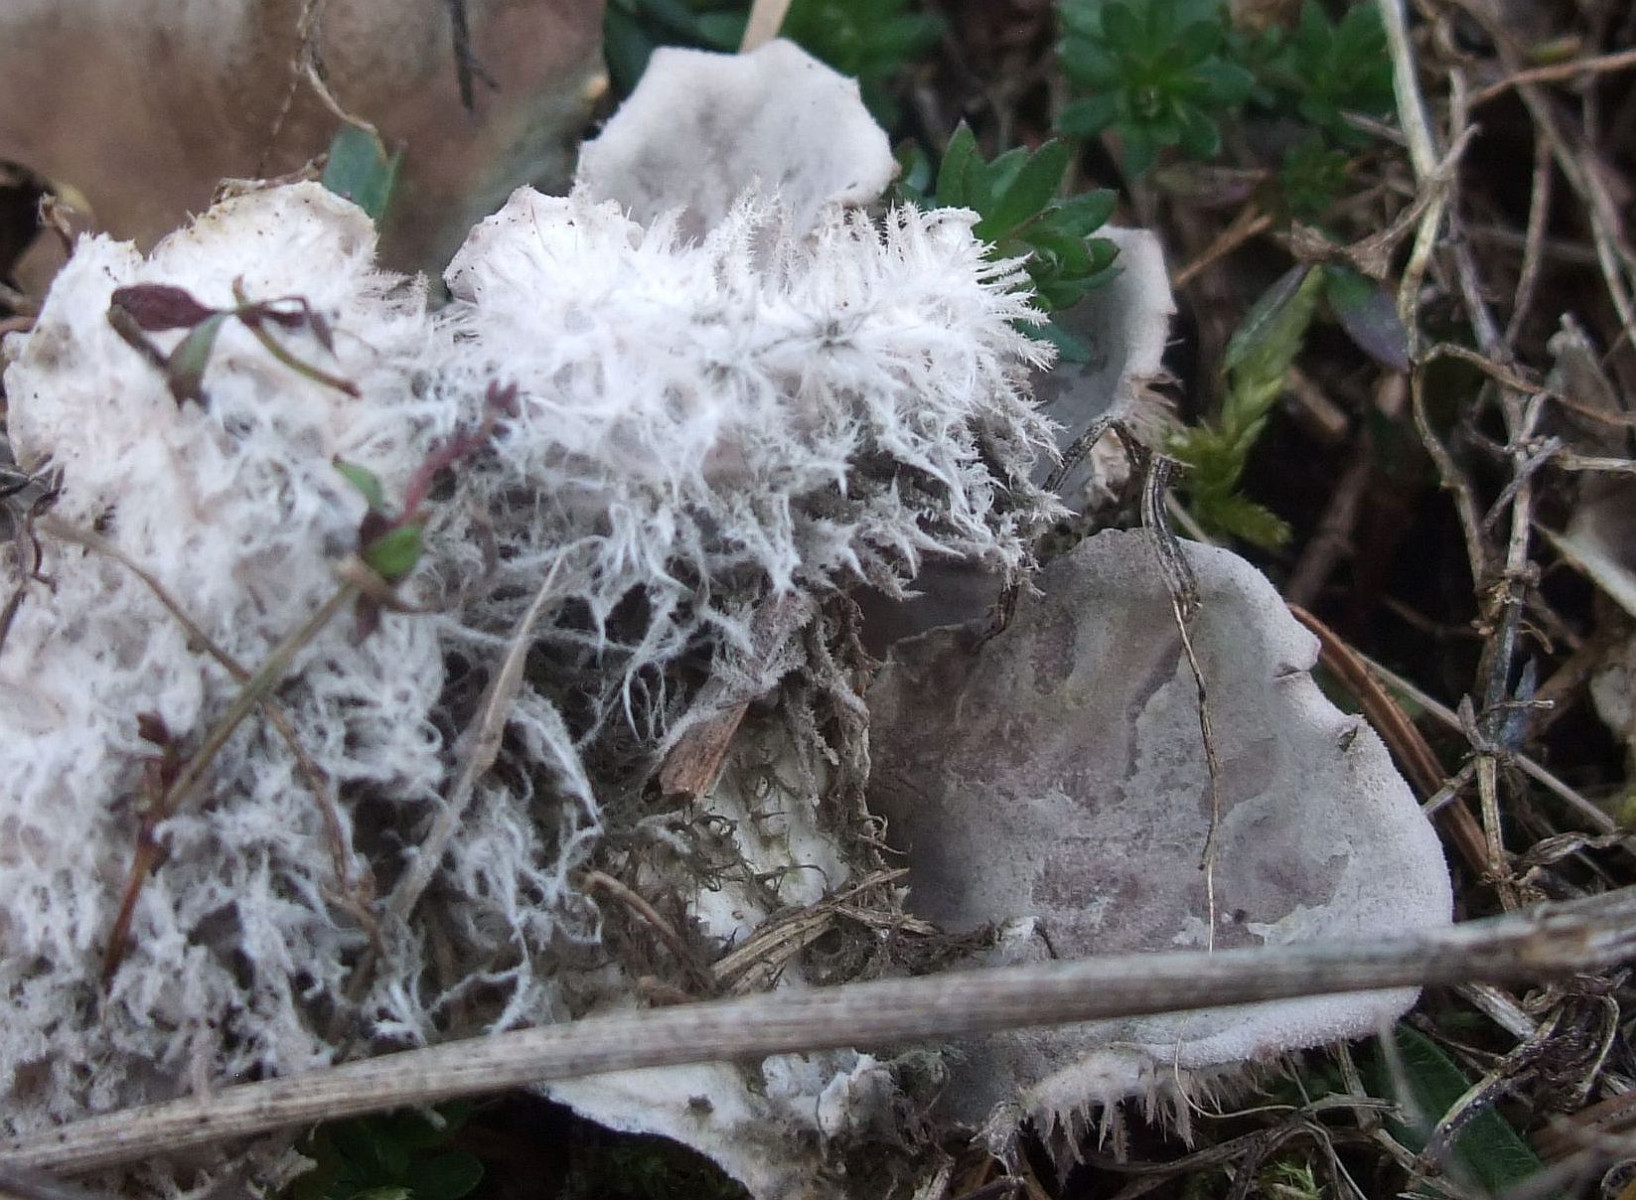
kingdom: Fungi
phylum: Ascomycota
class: Lecanoromycetes
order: Peltigerales
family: Peltigeraceae
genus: Peltigera
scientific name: Peltigera canina
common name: hunde-skjoldlav
